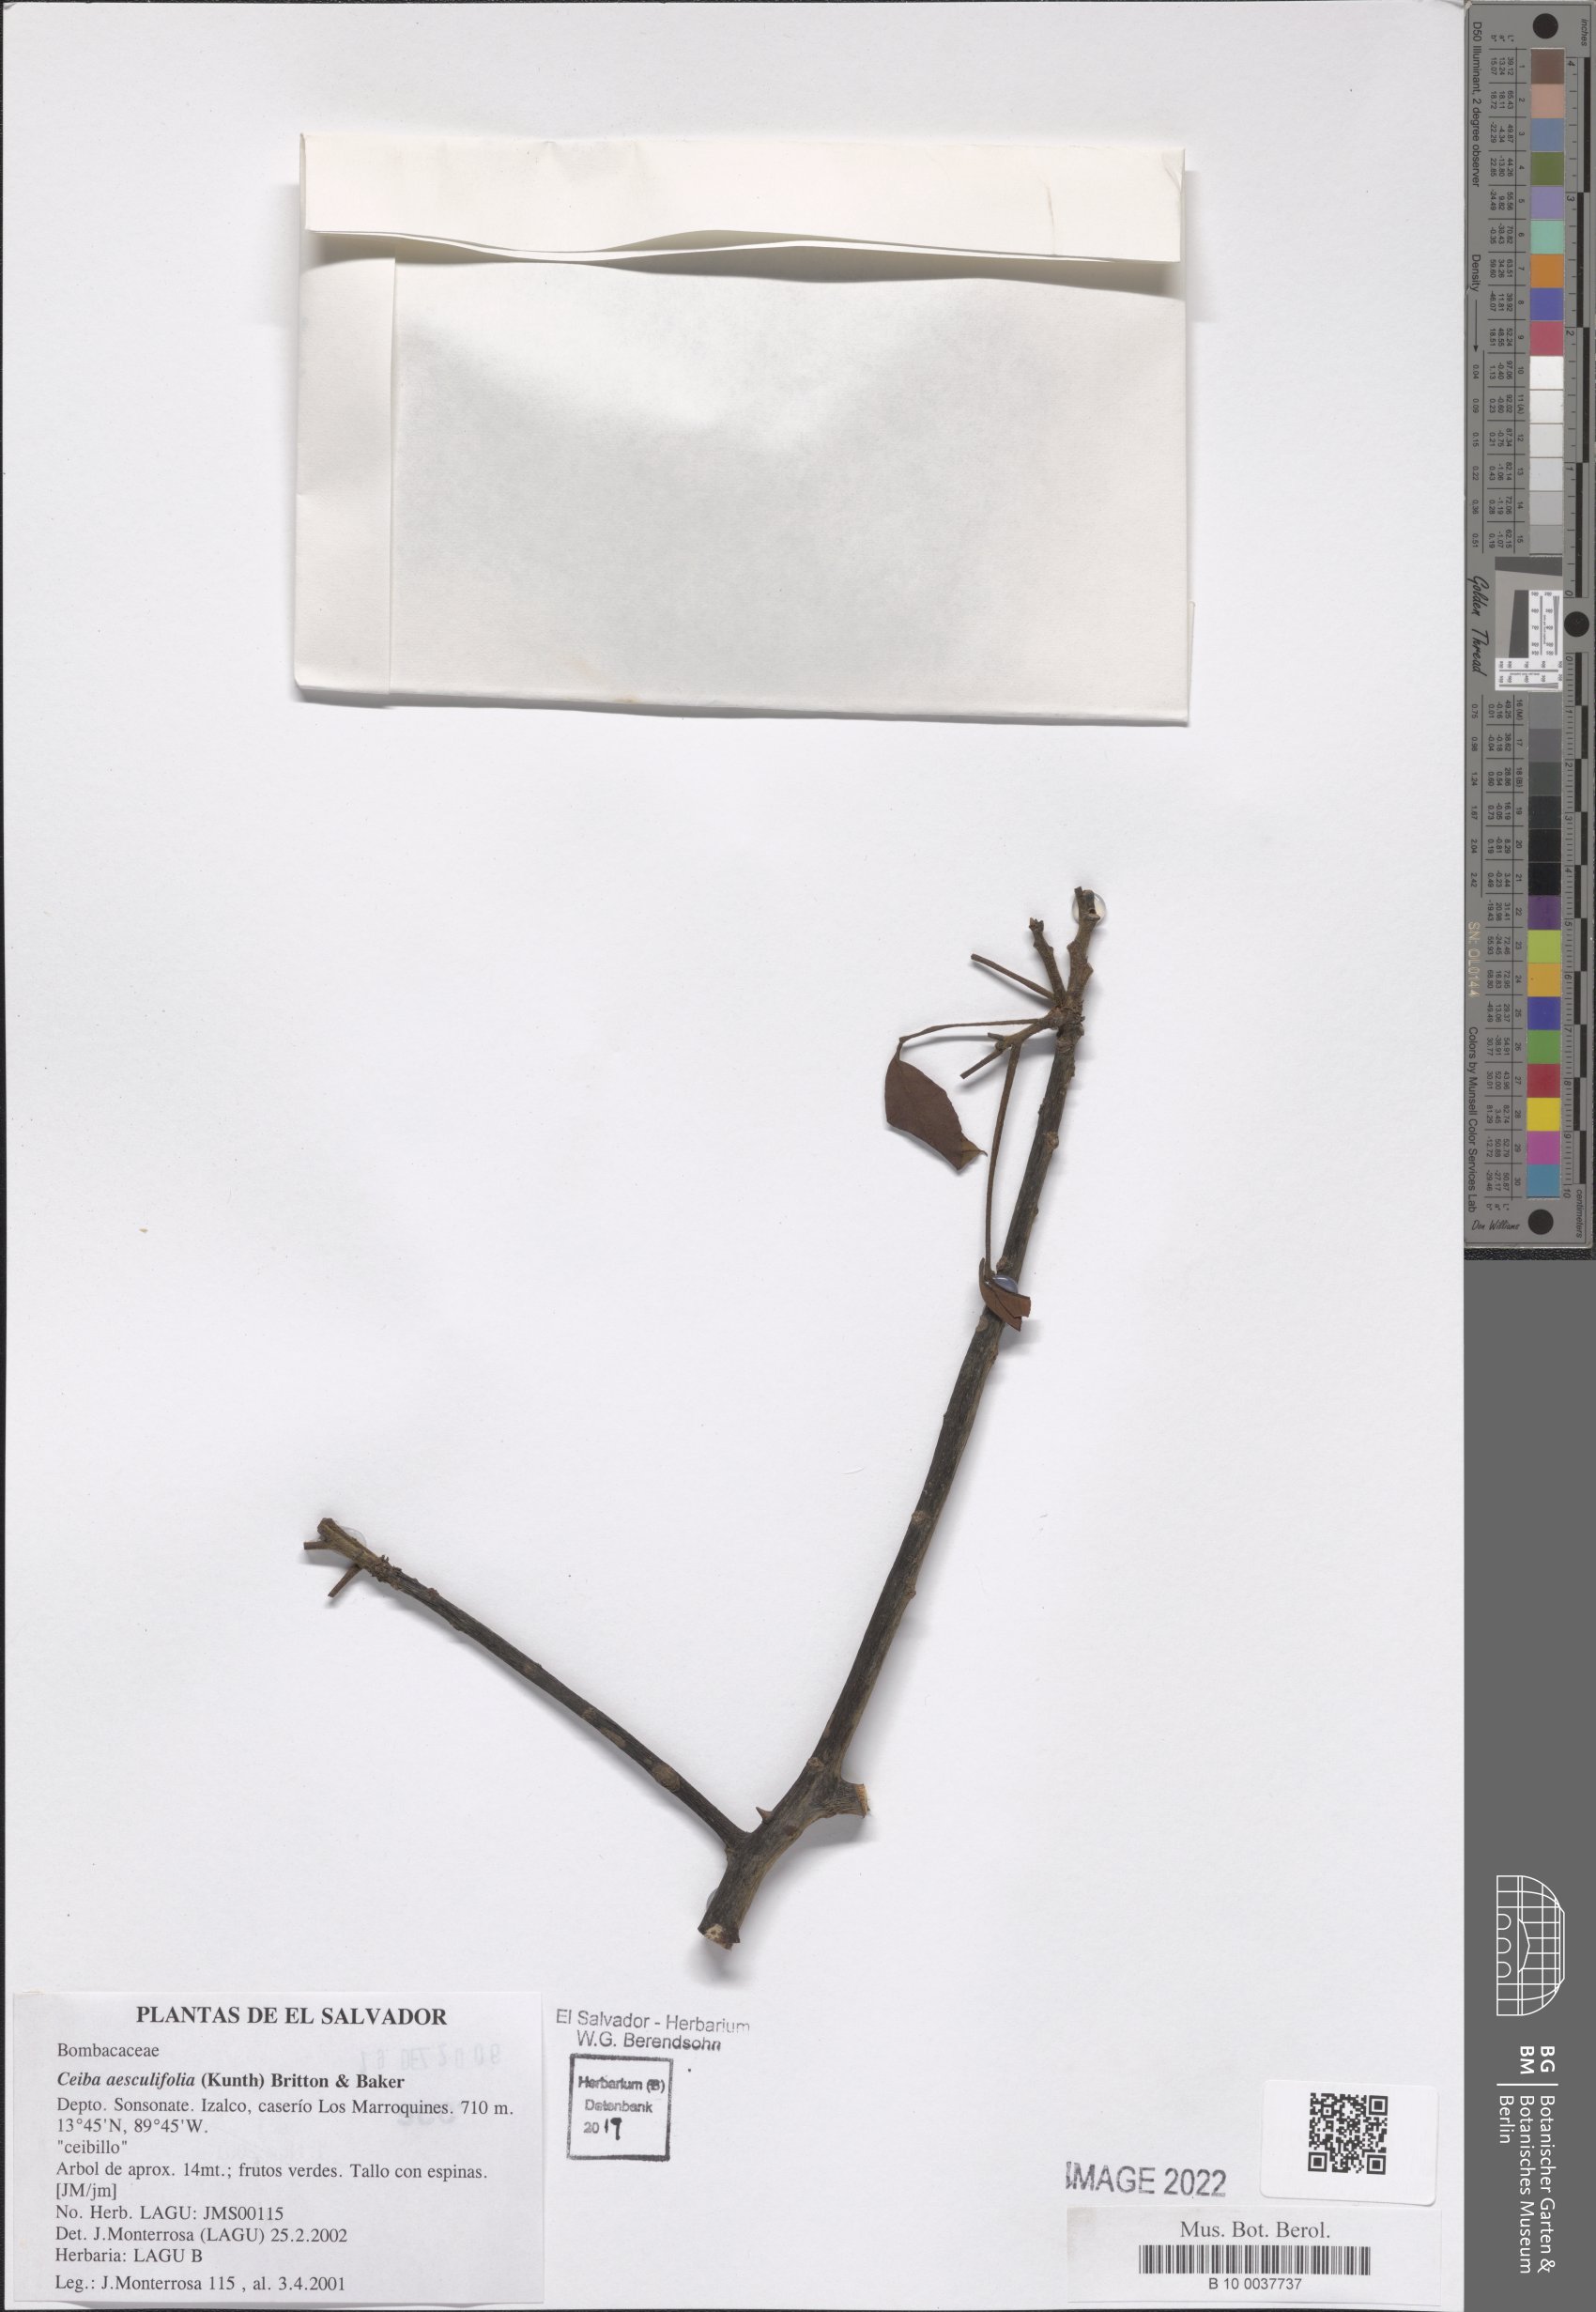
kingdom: Plantae
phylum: Tracheophyta
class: Magnoliopsida
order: Malvales
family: Malvaceae
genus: Ceiba
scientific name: Ceiba aesculifolia
